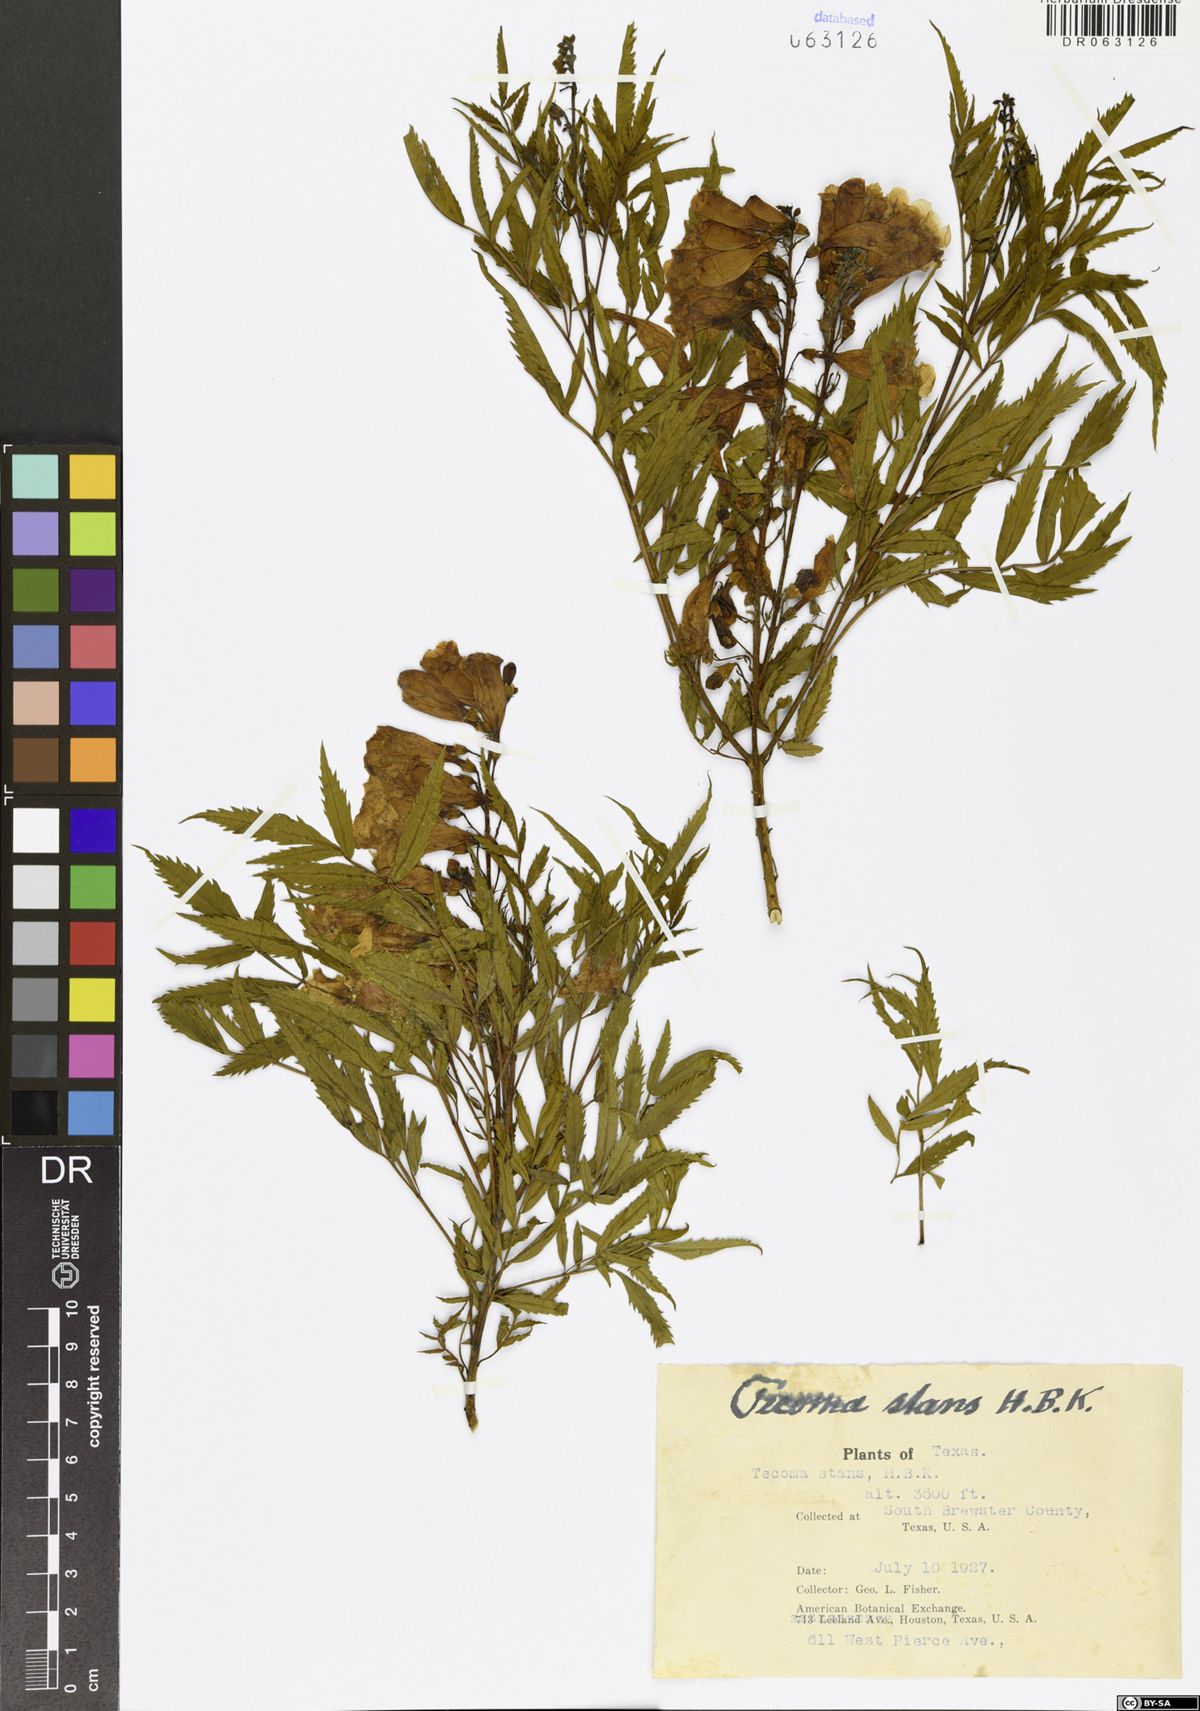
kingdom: Plantae
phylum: Tracheophyta
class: Magnoliopsida
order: Lamiales
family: Bignoniaceae
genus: Tecoma
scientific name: Tecoma stans
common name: Yellow trumpetbush
